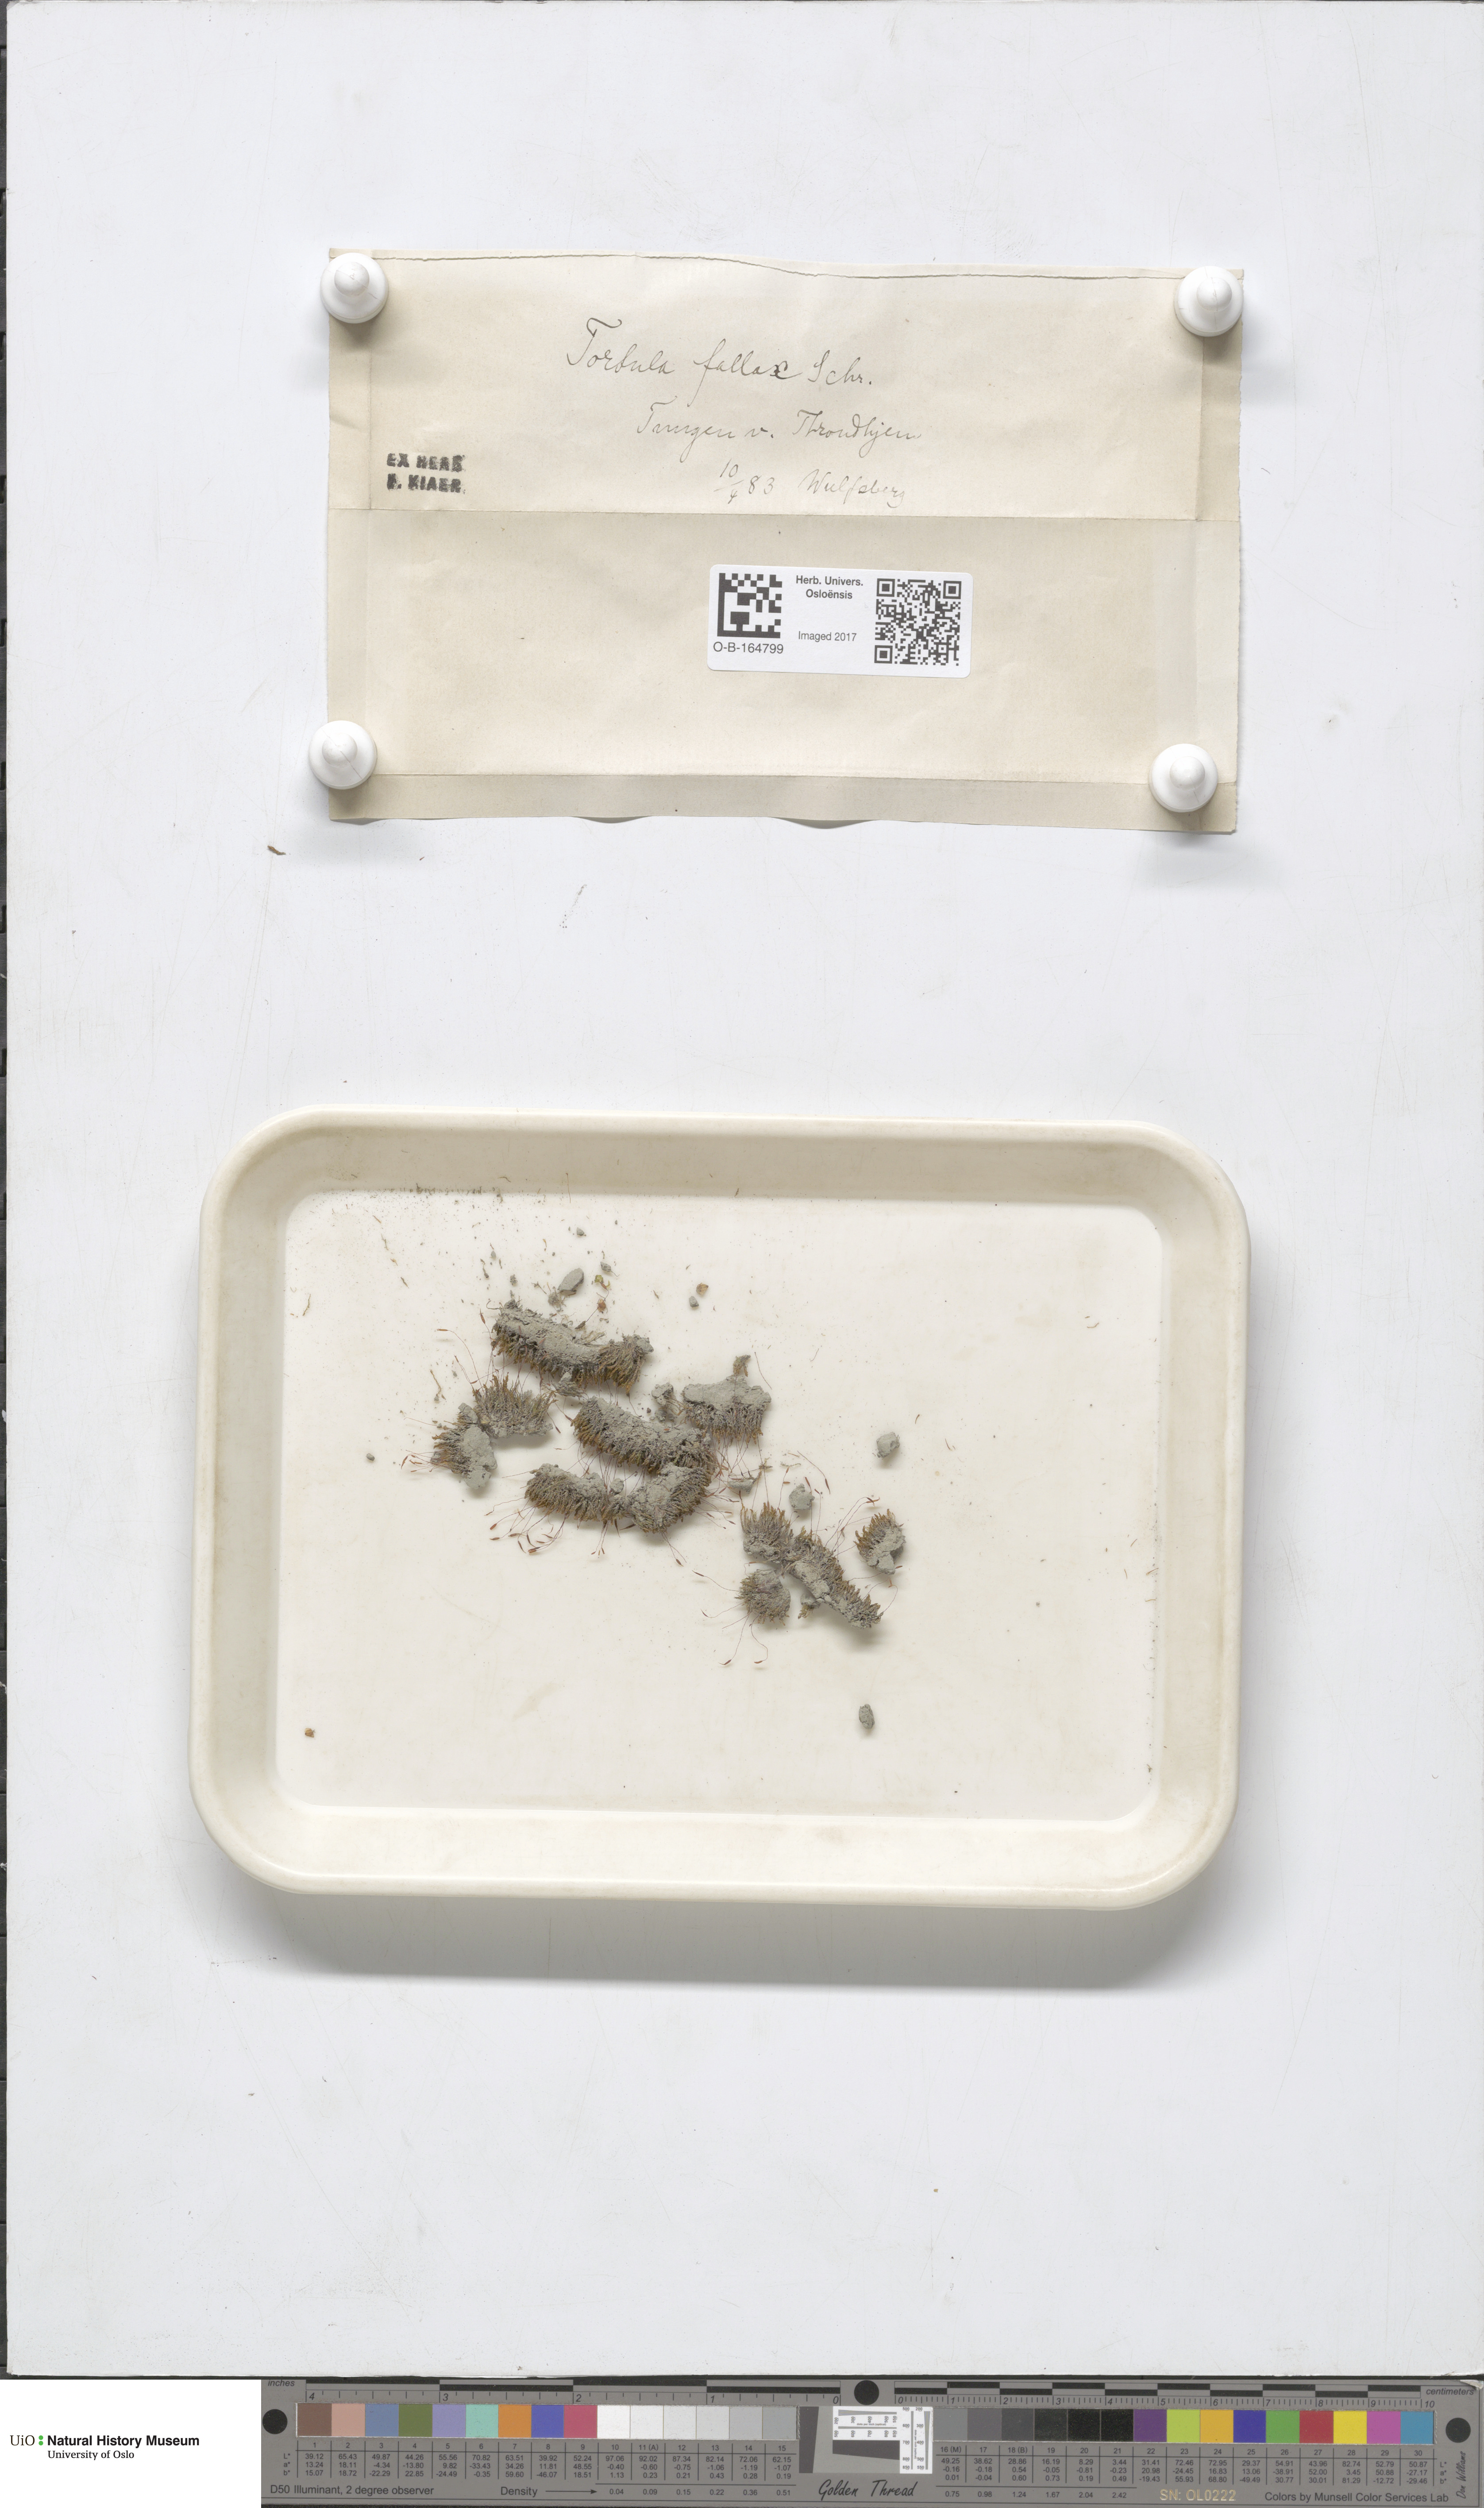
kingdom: Plantae
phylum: Bryophyta
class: Bryopsida
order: Pottiales
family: Pottiaceae
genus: Geheebia
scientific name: Geheebia fallax
